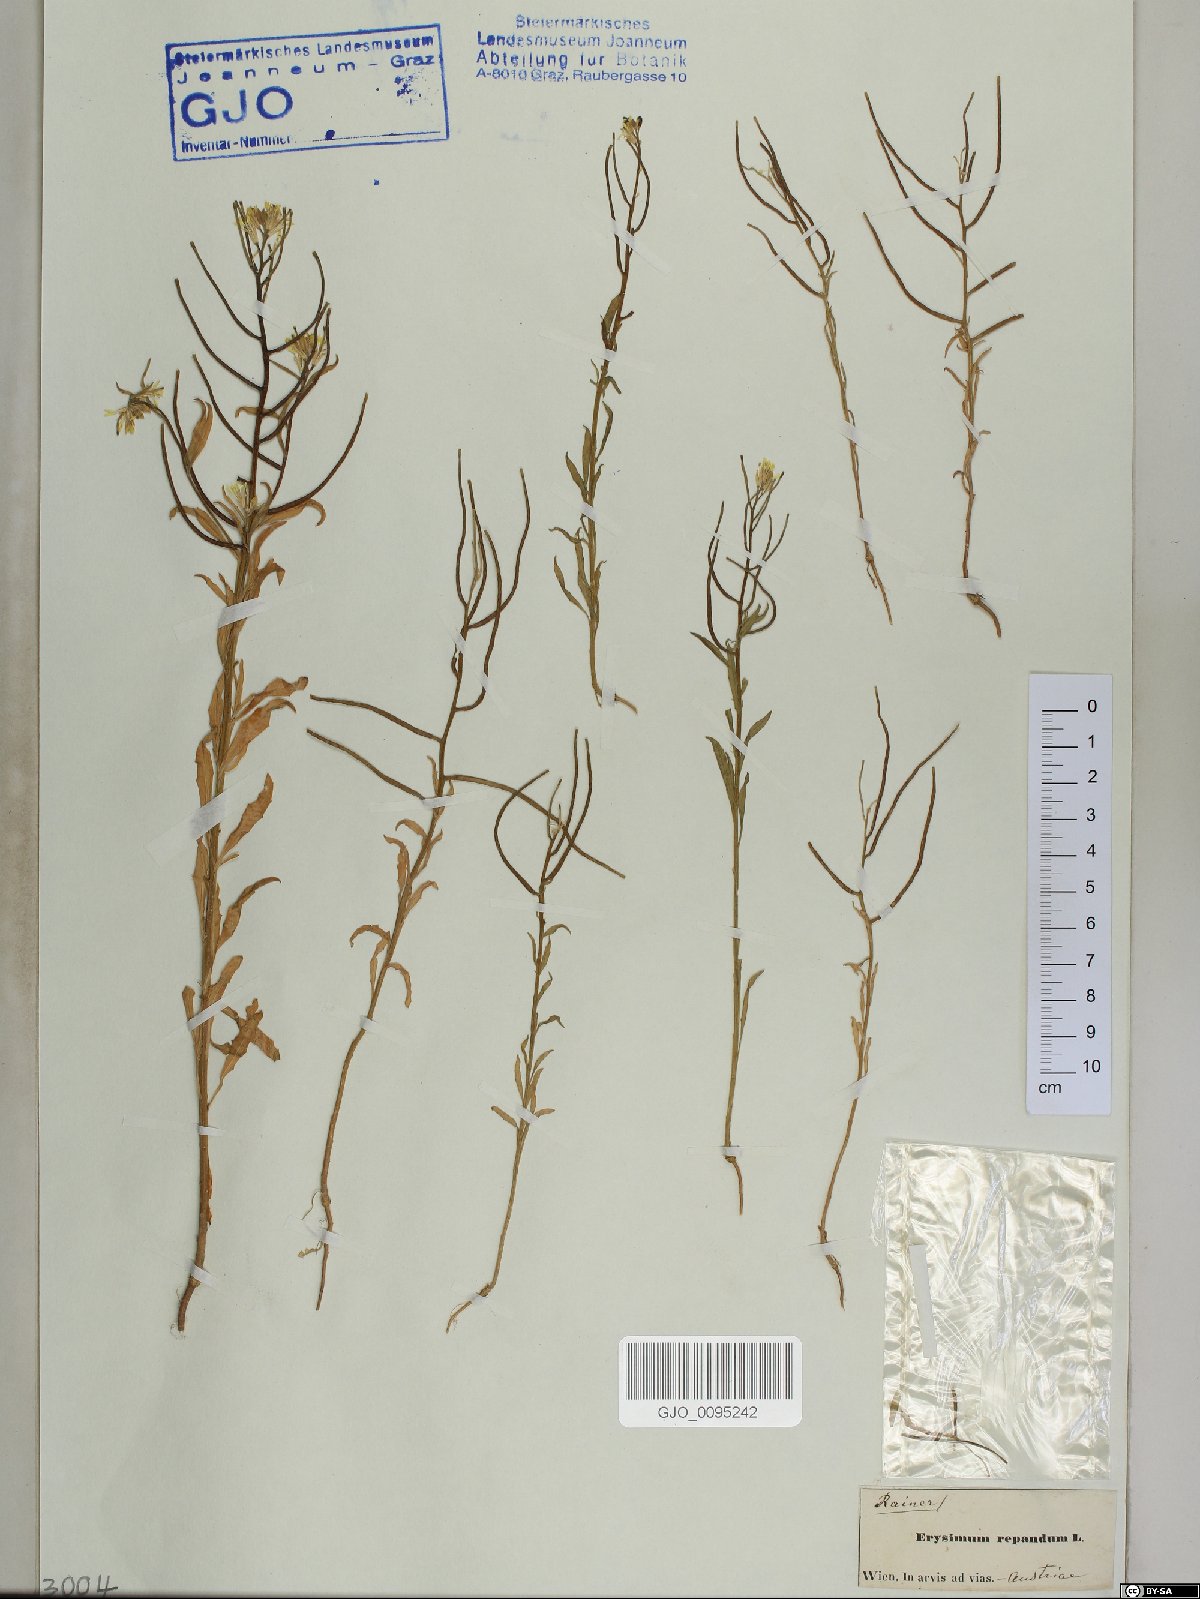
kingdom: Plantae
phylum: Tracheophyta
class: Magnoliopsida
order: Brassicales
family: Brassicaceae
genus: Erysimum
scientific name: Erysimum repandum
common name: Spreading wallflower
